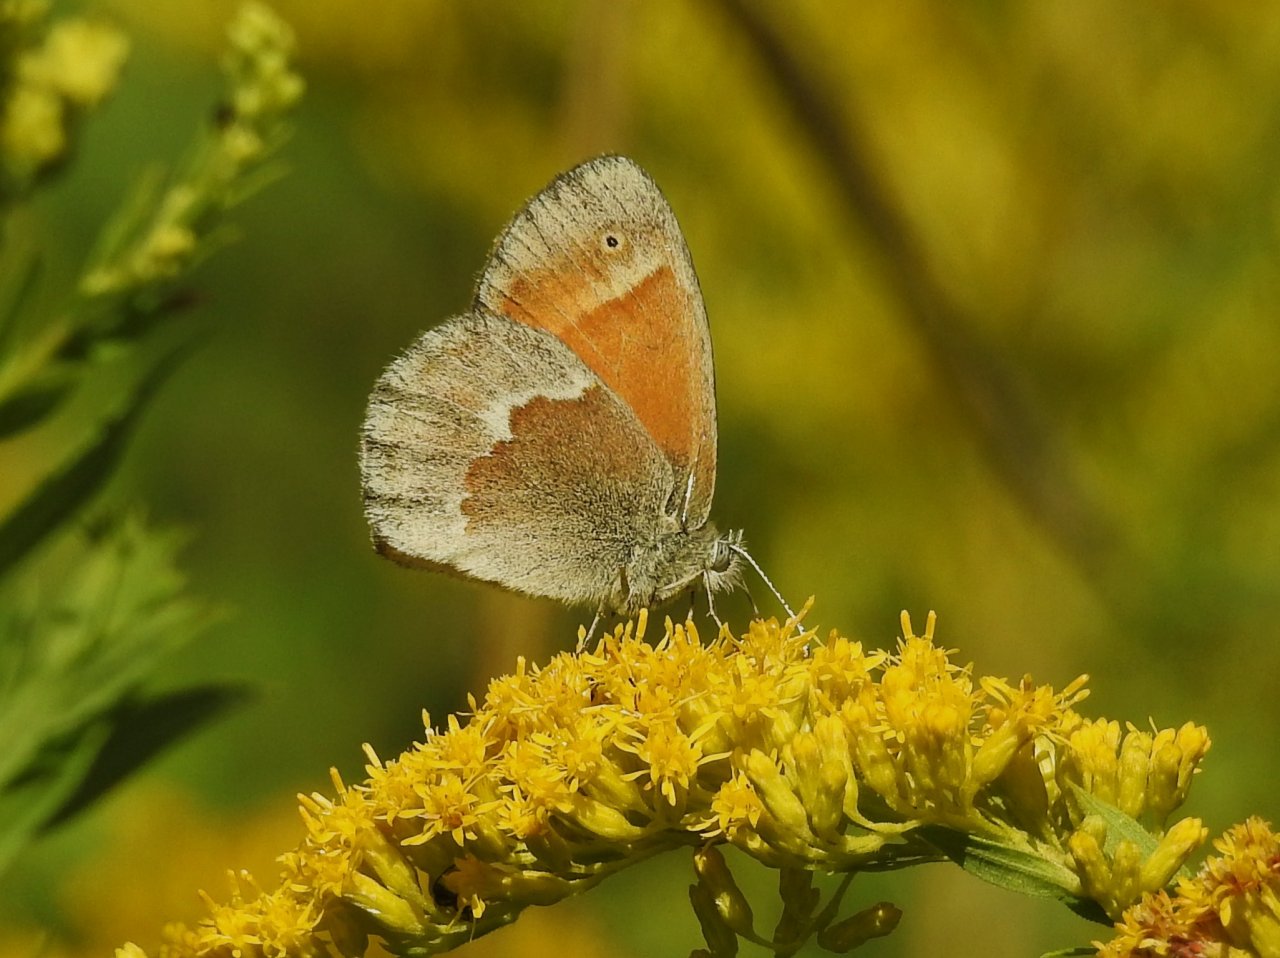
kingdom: Animalia
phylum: Arthropoda
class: Insecta
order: Lepidoptera
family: Nymphalidae
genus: Coenonympha
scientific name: Coenonympha tullia
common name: Large Heath
